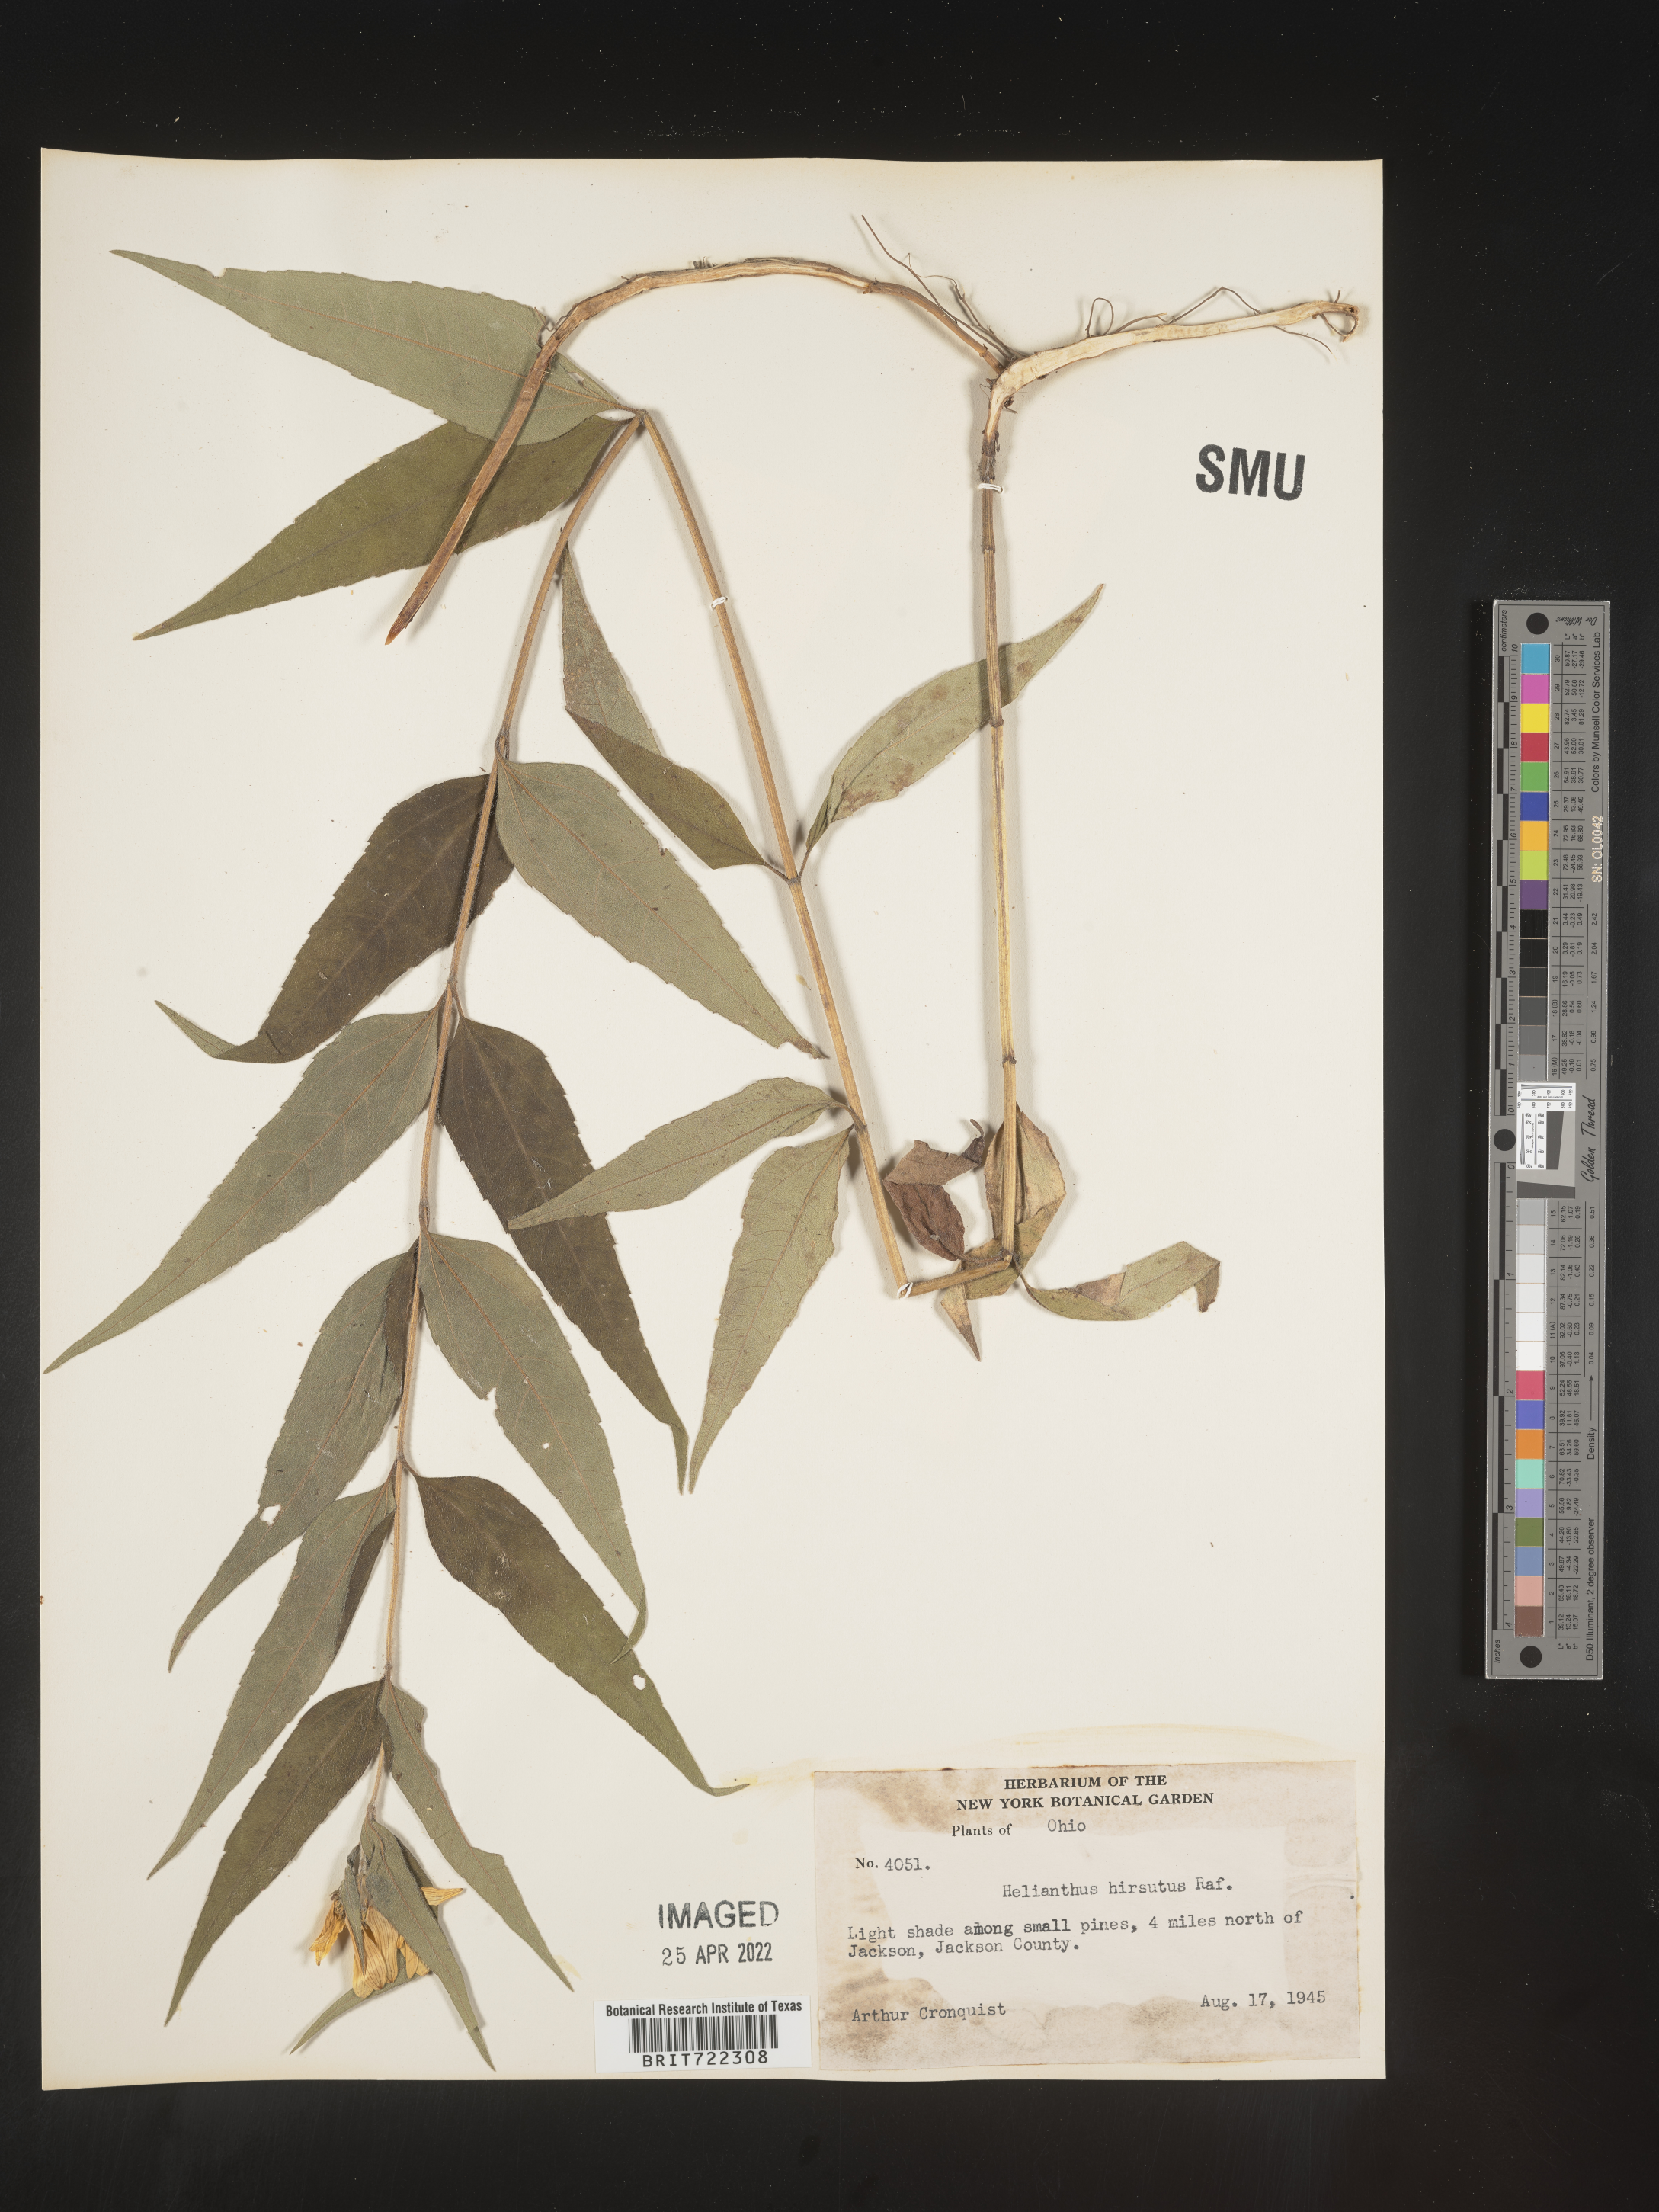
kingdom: Plantae
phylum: Tracheophyta
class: Magnoliopsida
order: Asterales
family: Asteraceae
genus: Helianthus
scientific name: Helianthus hirsutus
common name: Hairy sunflower
